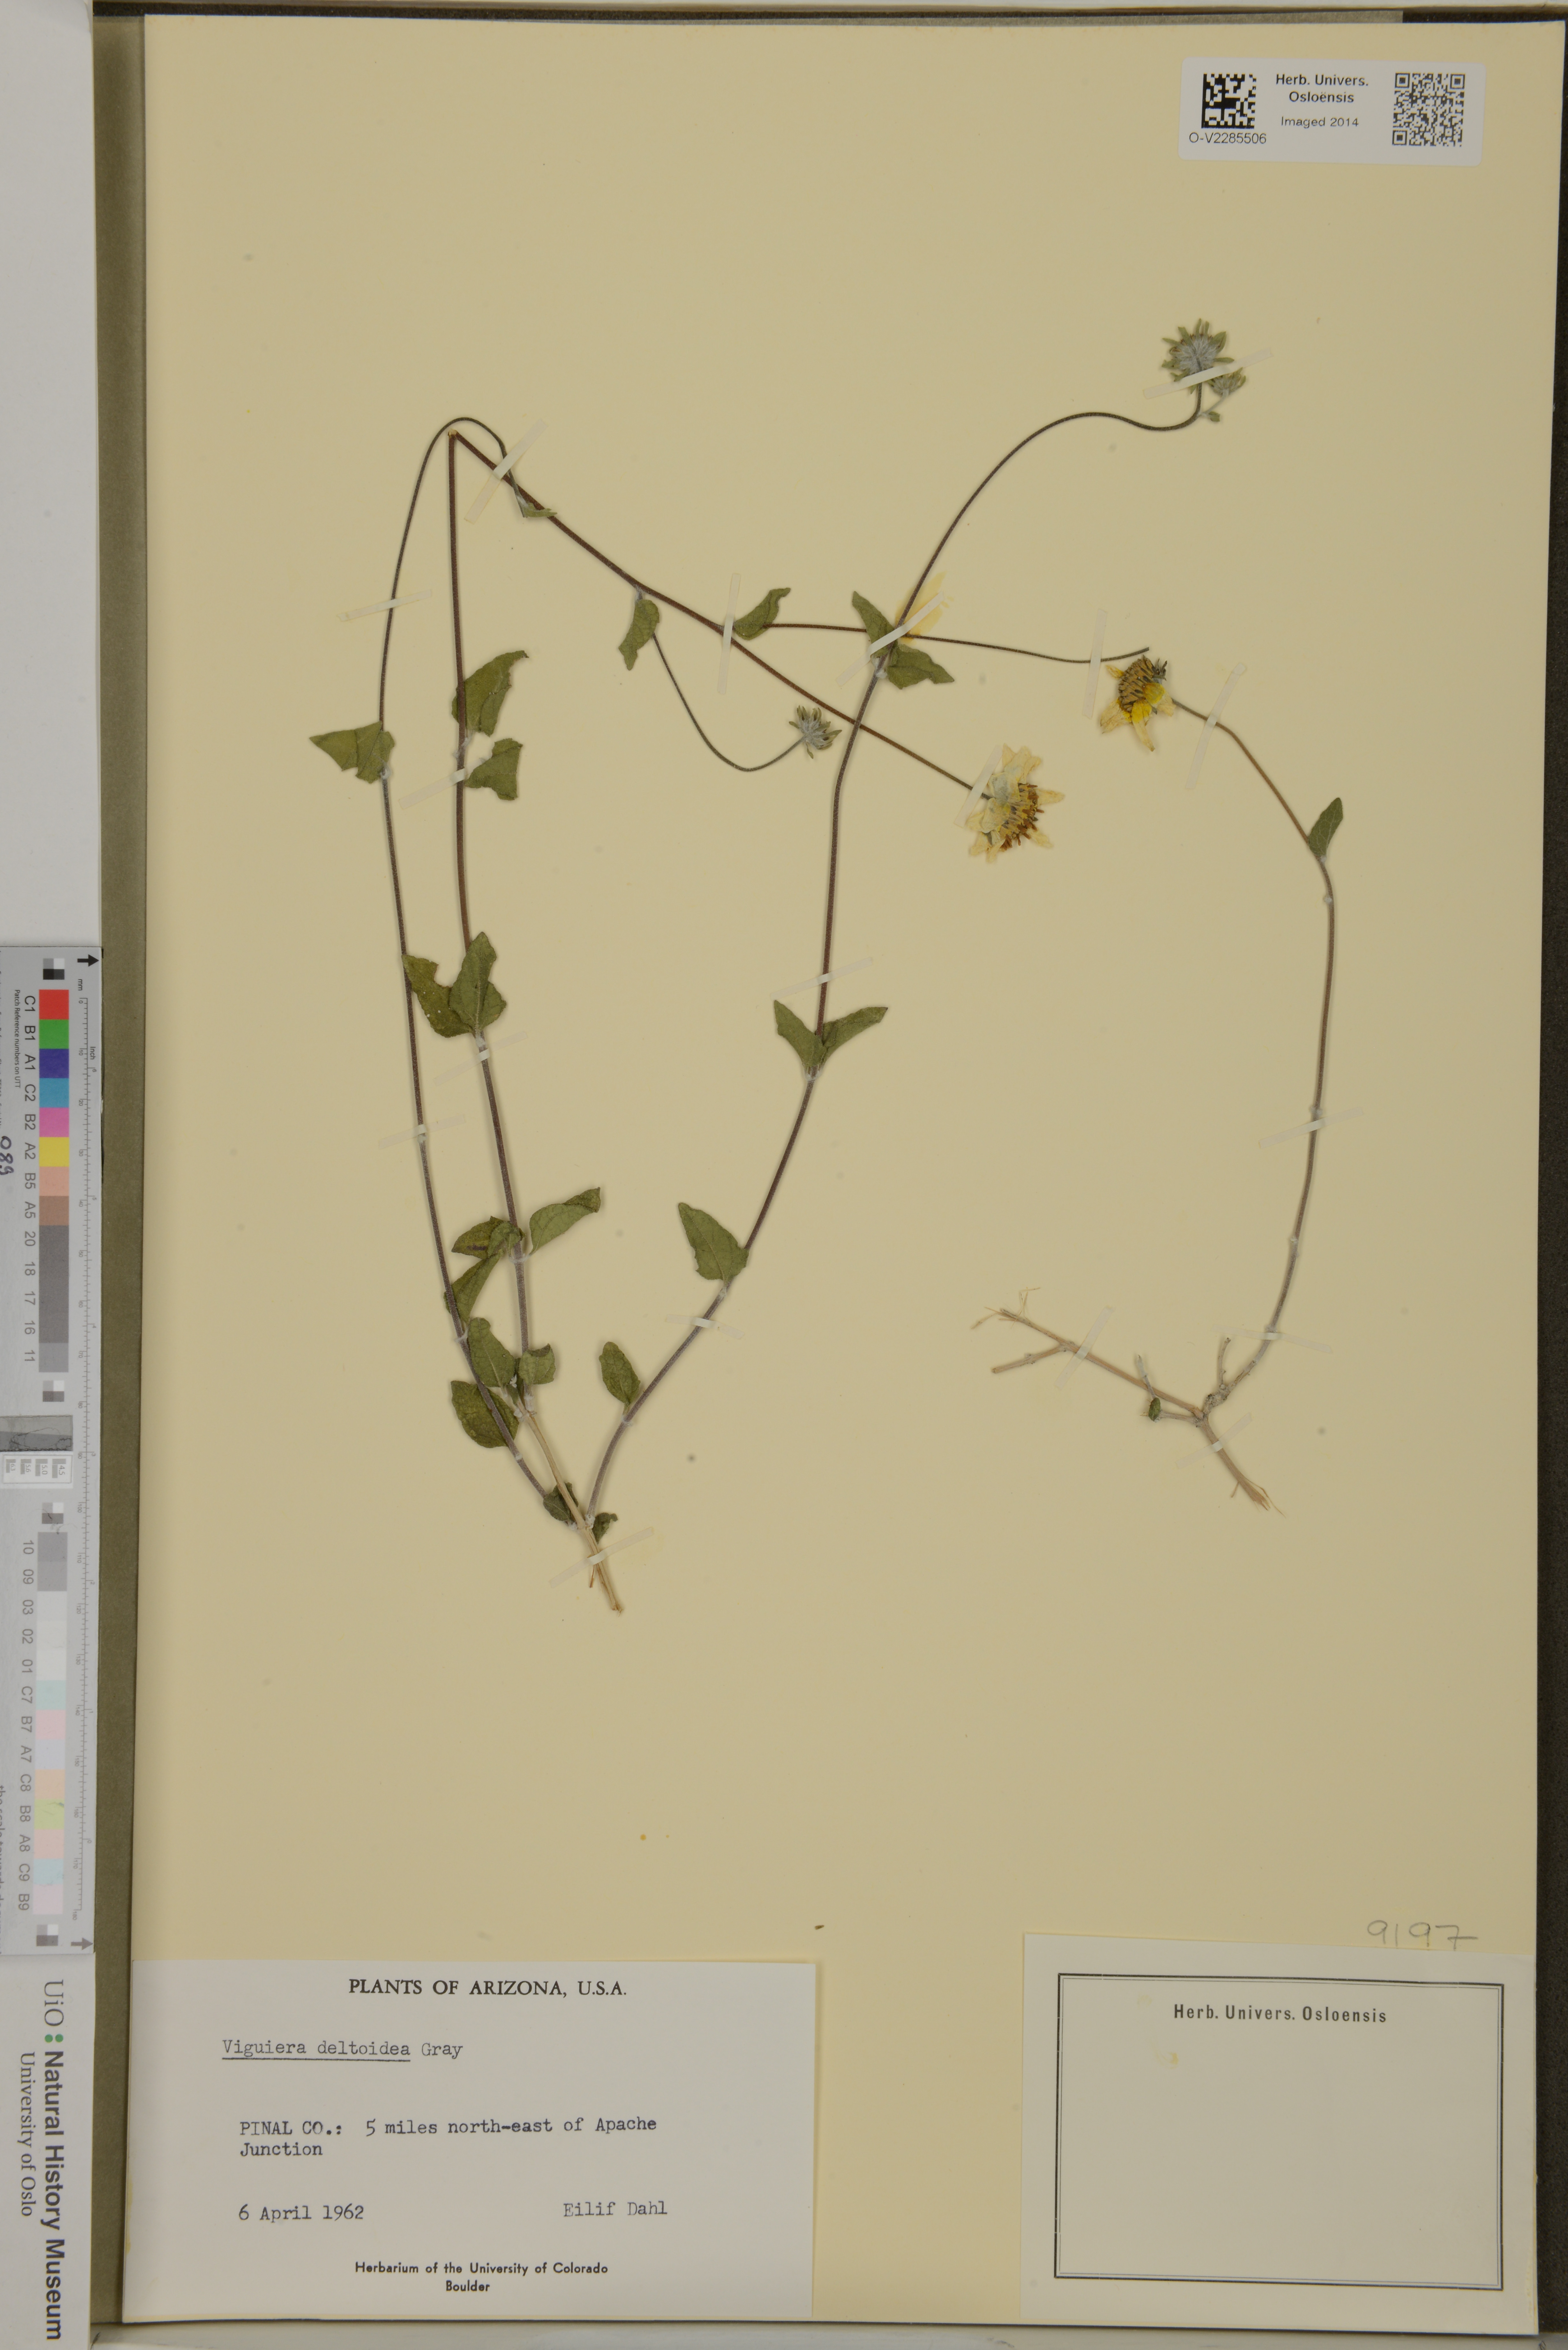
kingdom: Plantae
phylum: Tracheophyta
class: Magnoliopsida
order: Asterales
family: Asteraceae
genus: Bahiopsis
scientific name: Bahiopsis deltoidea
